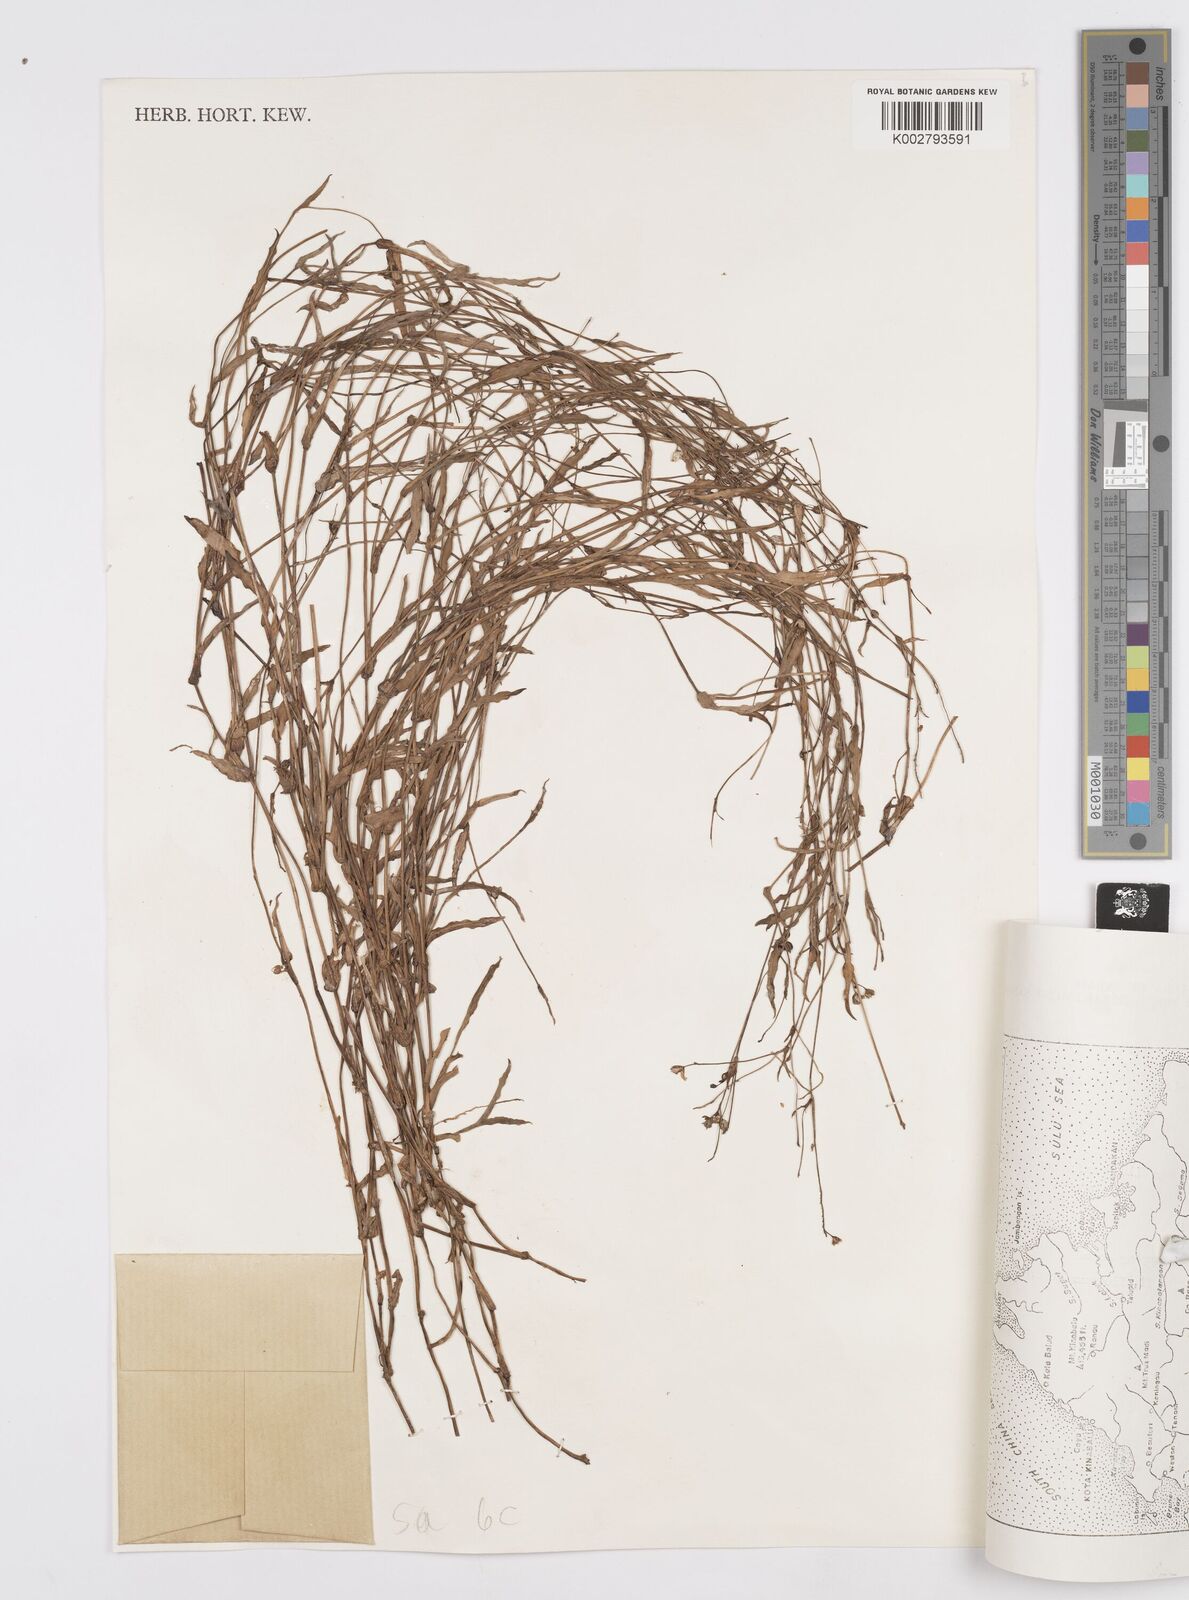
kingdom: Plantae
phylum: Tracheophyta
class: Liliopsida
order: Commelinales
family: Commelinaceae
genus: Murdannia
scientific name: Murdannia nudiflora
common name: Nakedstem dewflower
